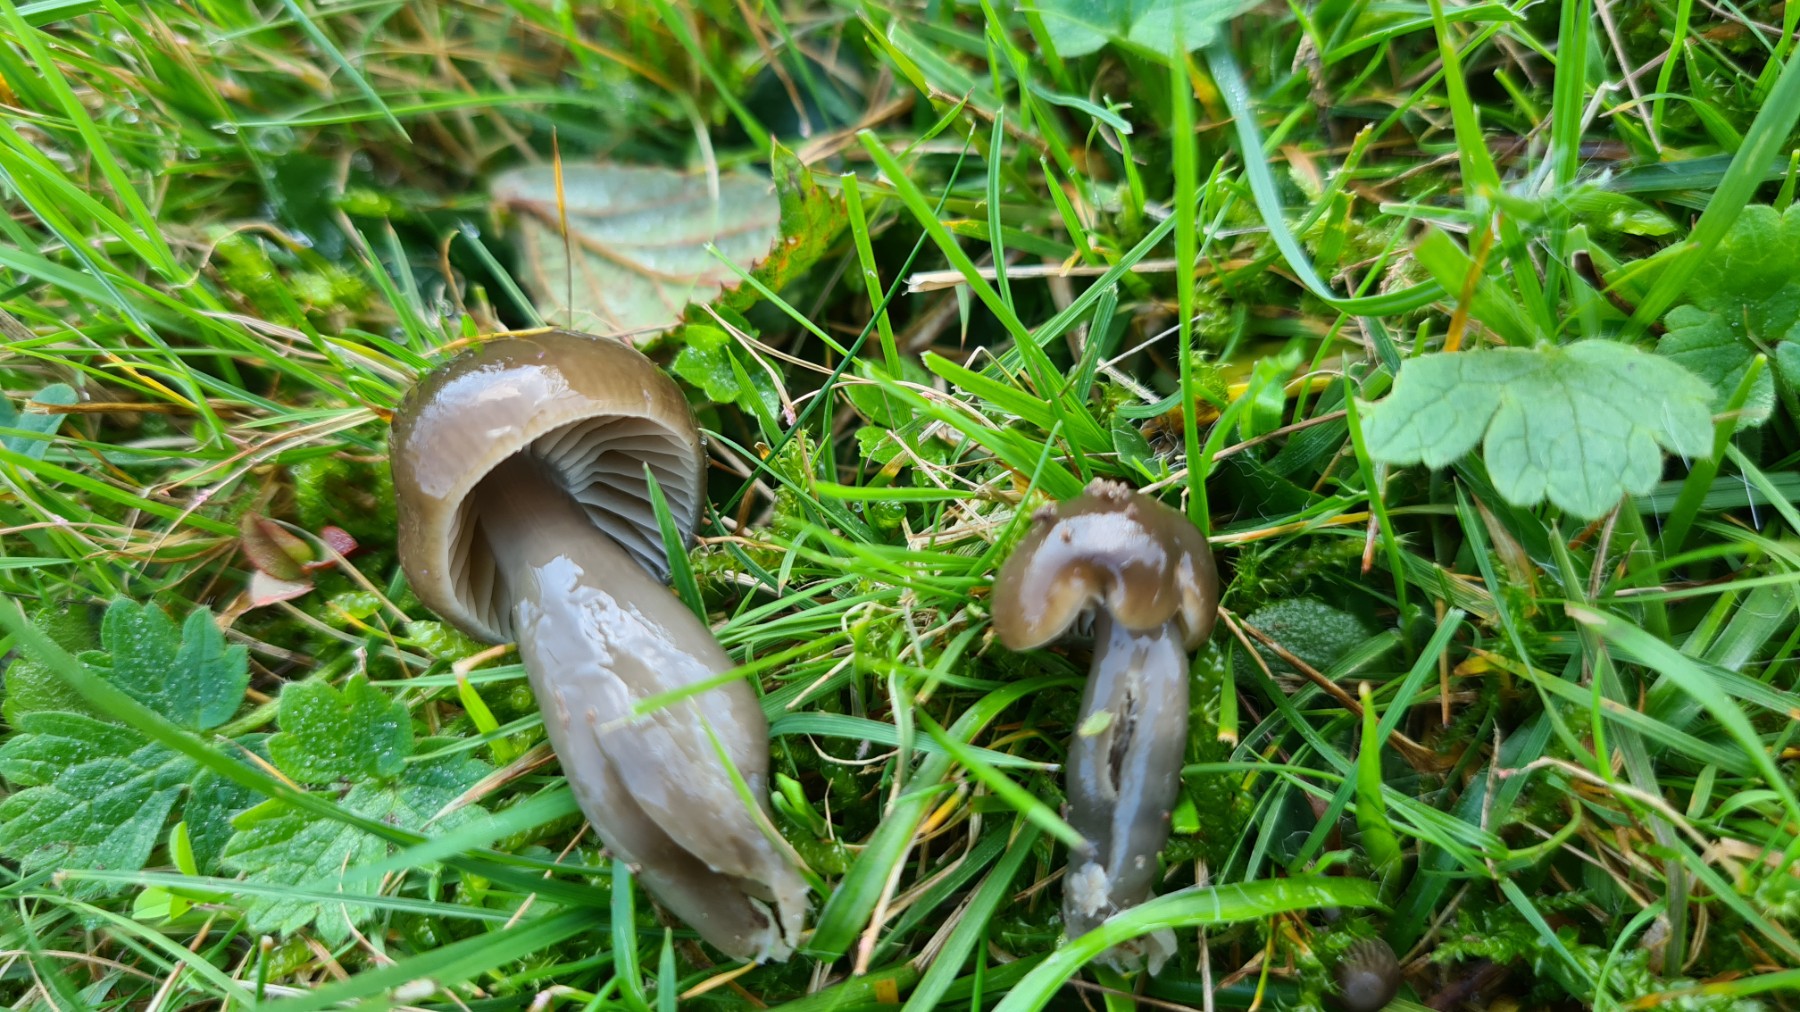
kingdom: Fungi
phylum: Basidiomycota
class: Agaricomycetes
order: Agaricales
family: Hygrophoraceae
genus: Gliophorus
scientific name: Gliophorus irrigatus
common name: slimet vokshat
